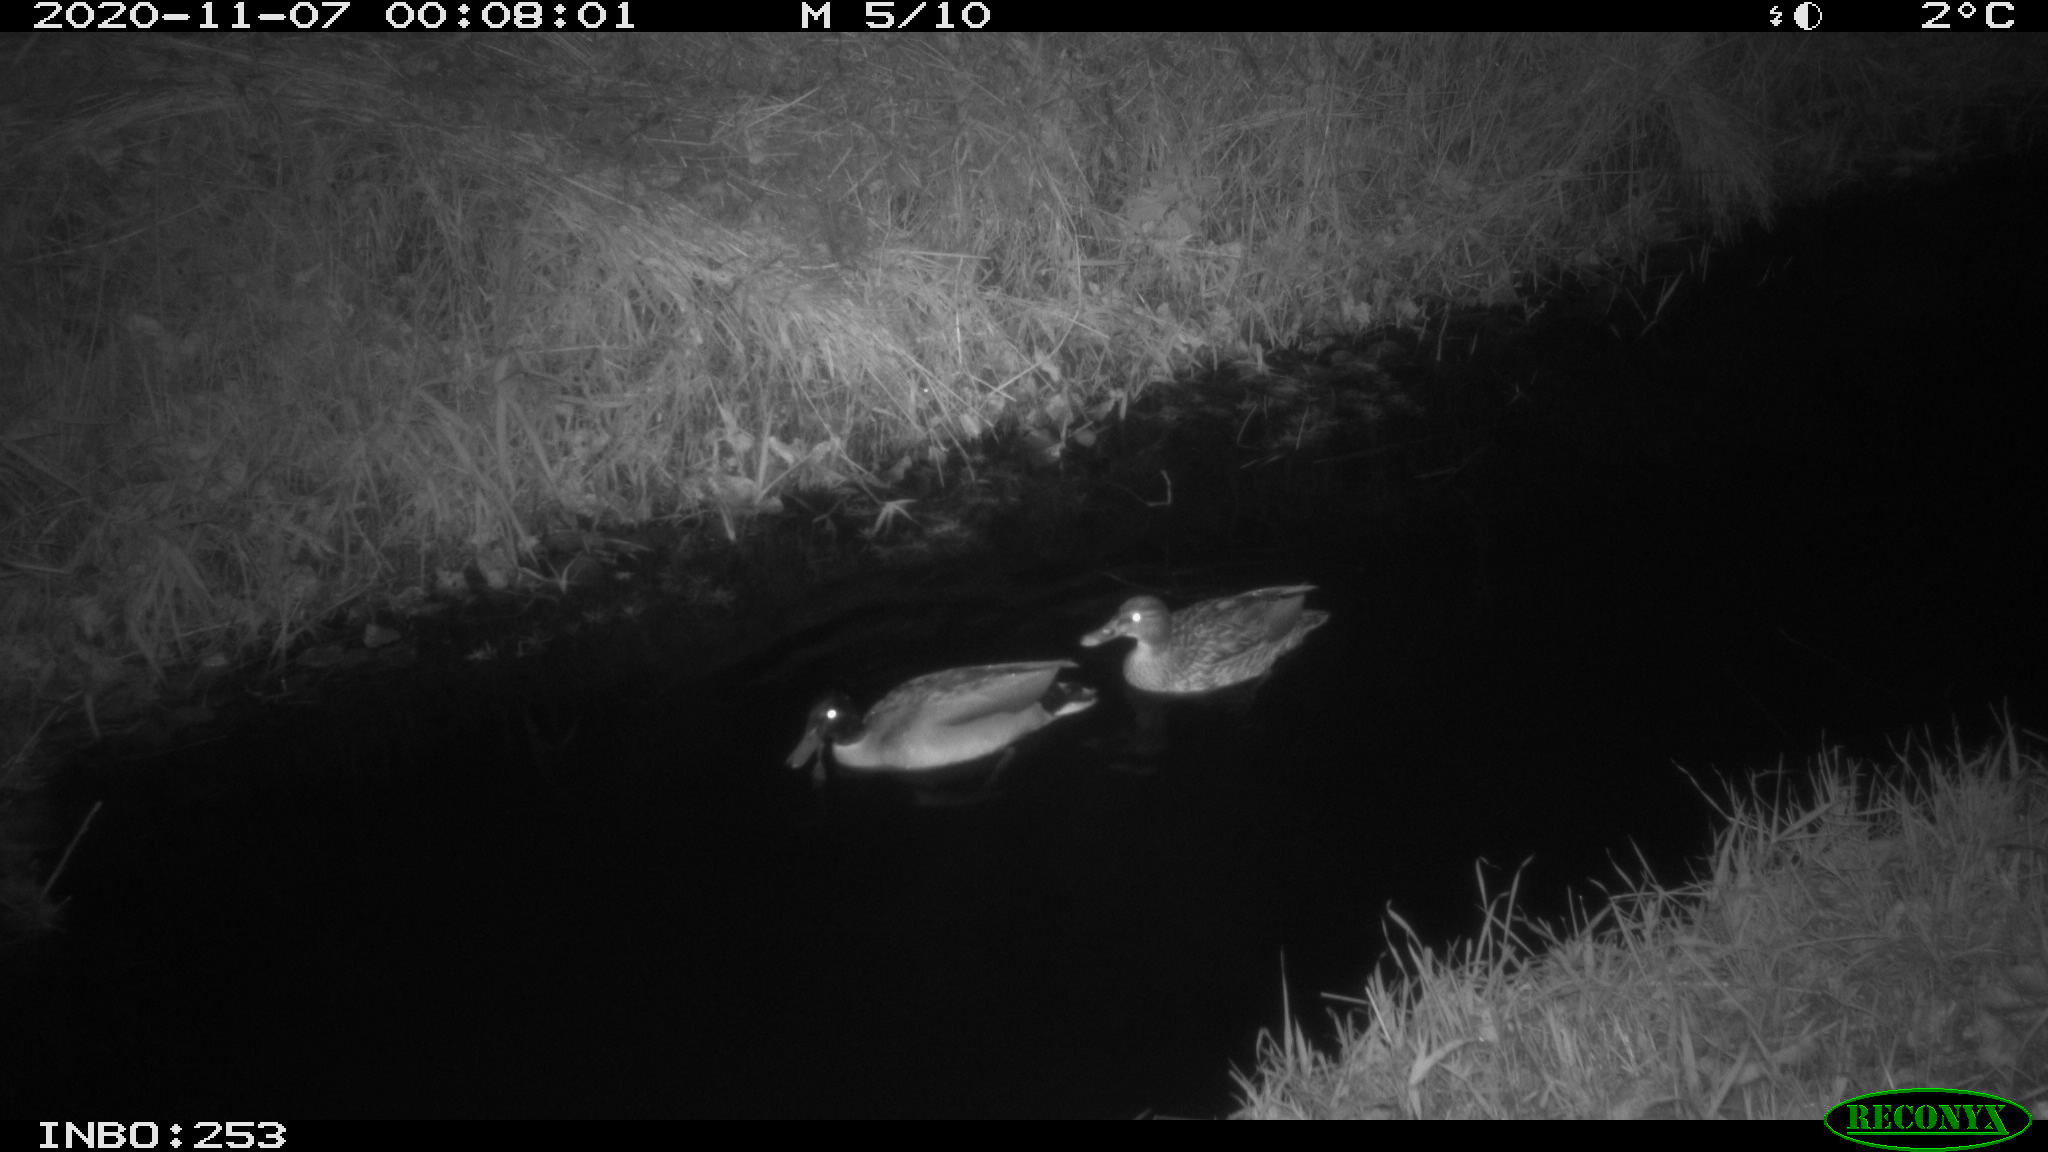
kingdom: Animalia
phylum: Chordata
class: Aves
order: Anseriformes
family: Anatidae
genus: Anas
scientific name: Anas platyrhynchos
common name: Mallard
